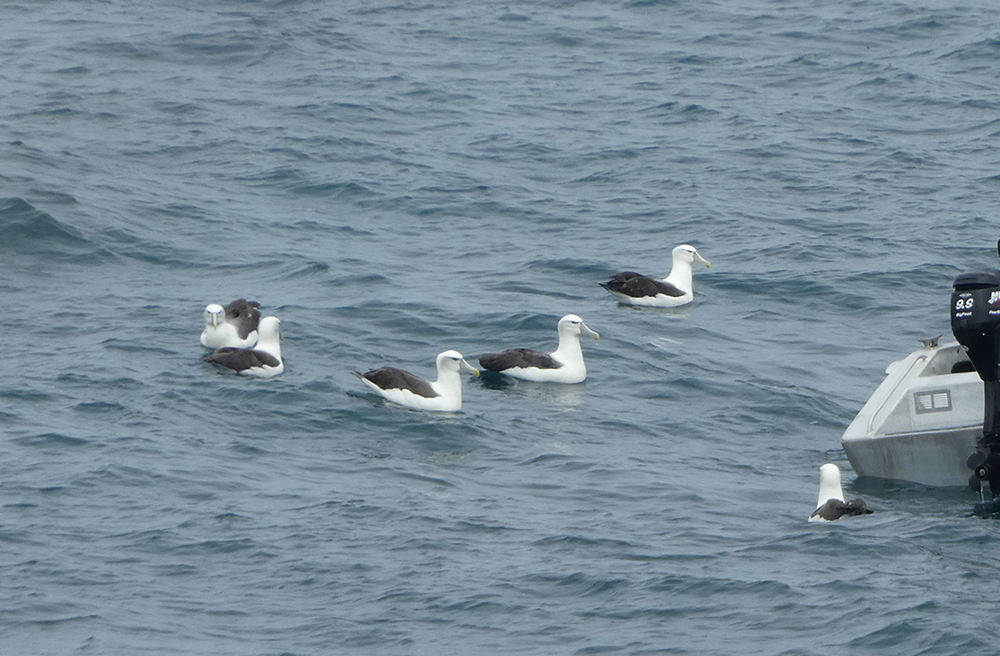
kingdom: Animalia
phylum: Chordata
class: Aves
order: Procellariiformes
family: Diomedeidae
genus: Thalassarche
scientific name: Thalassarche salvini
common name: Salvin's albatross
